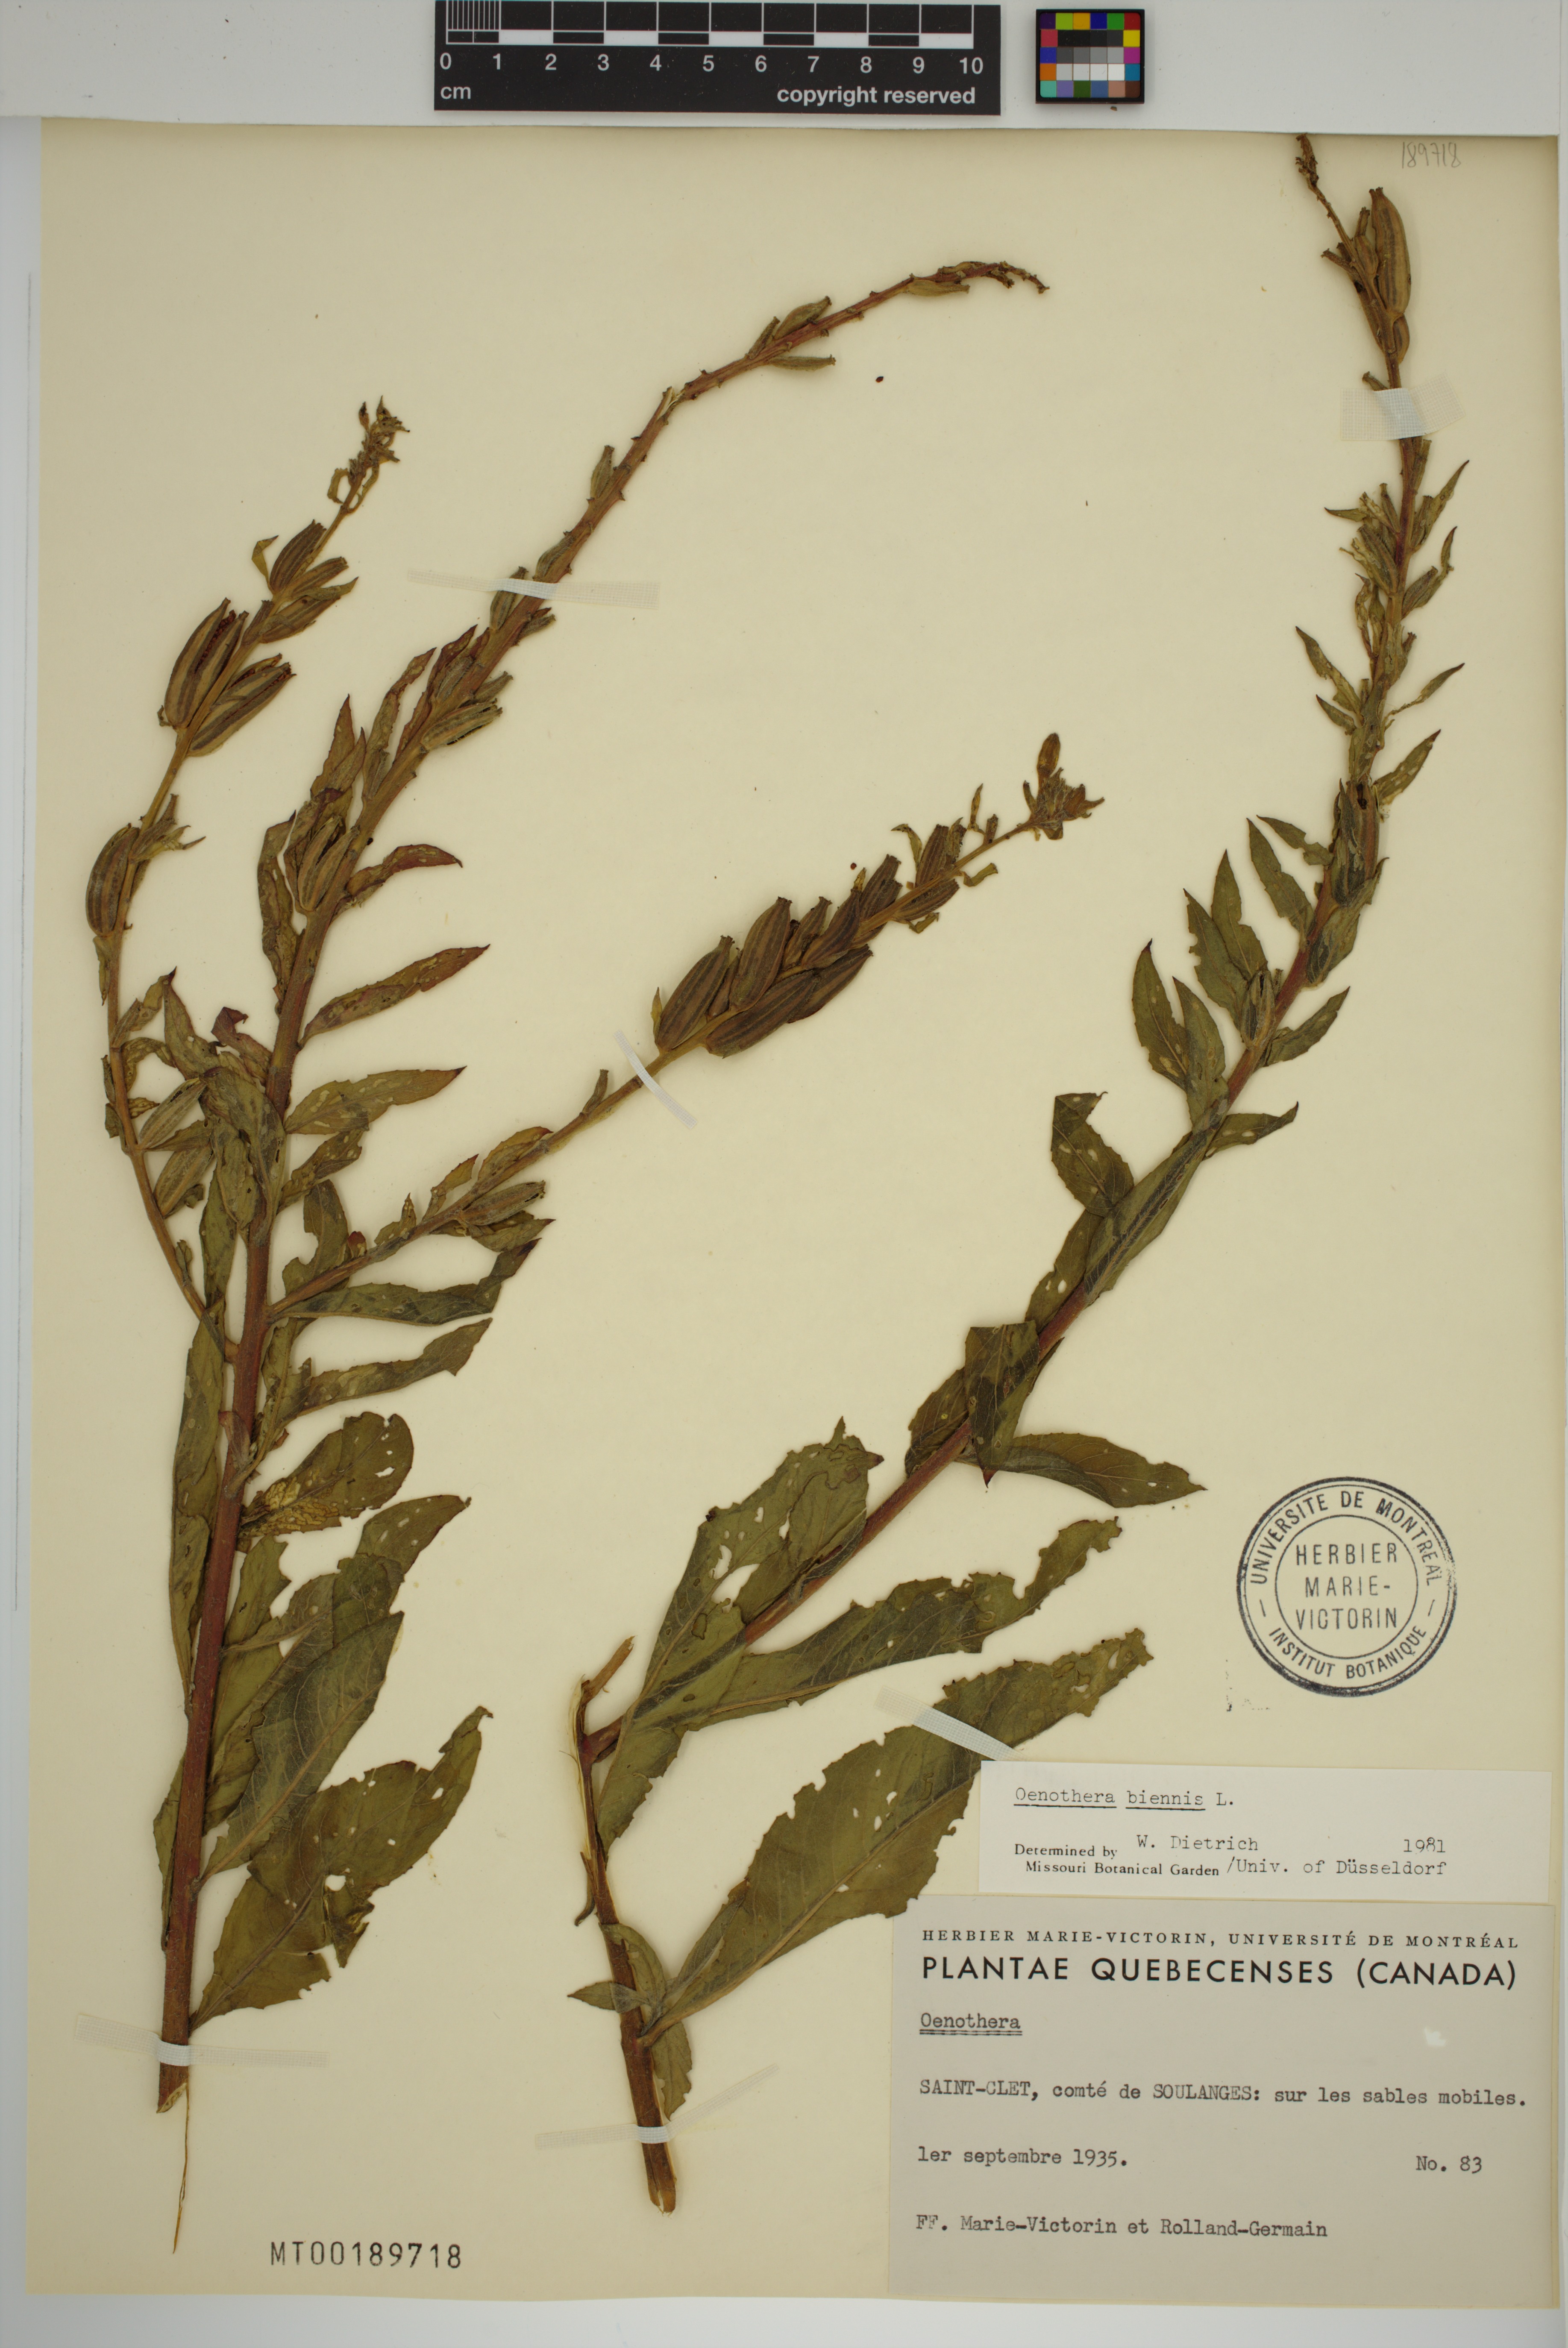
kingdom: Plantae
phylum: Tracheophyta
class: Magnoliopsida
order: Myrtales
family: Onagraceae
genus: Oenothera
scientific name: Oenothera biennis
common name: Common evening-primrose
